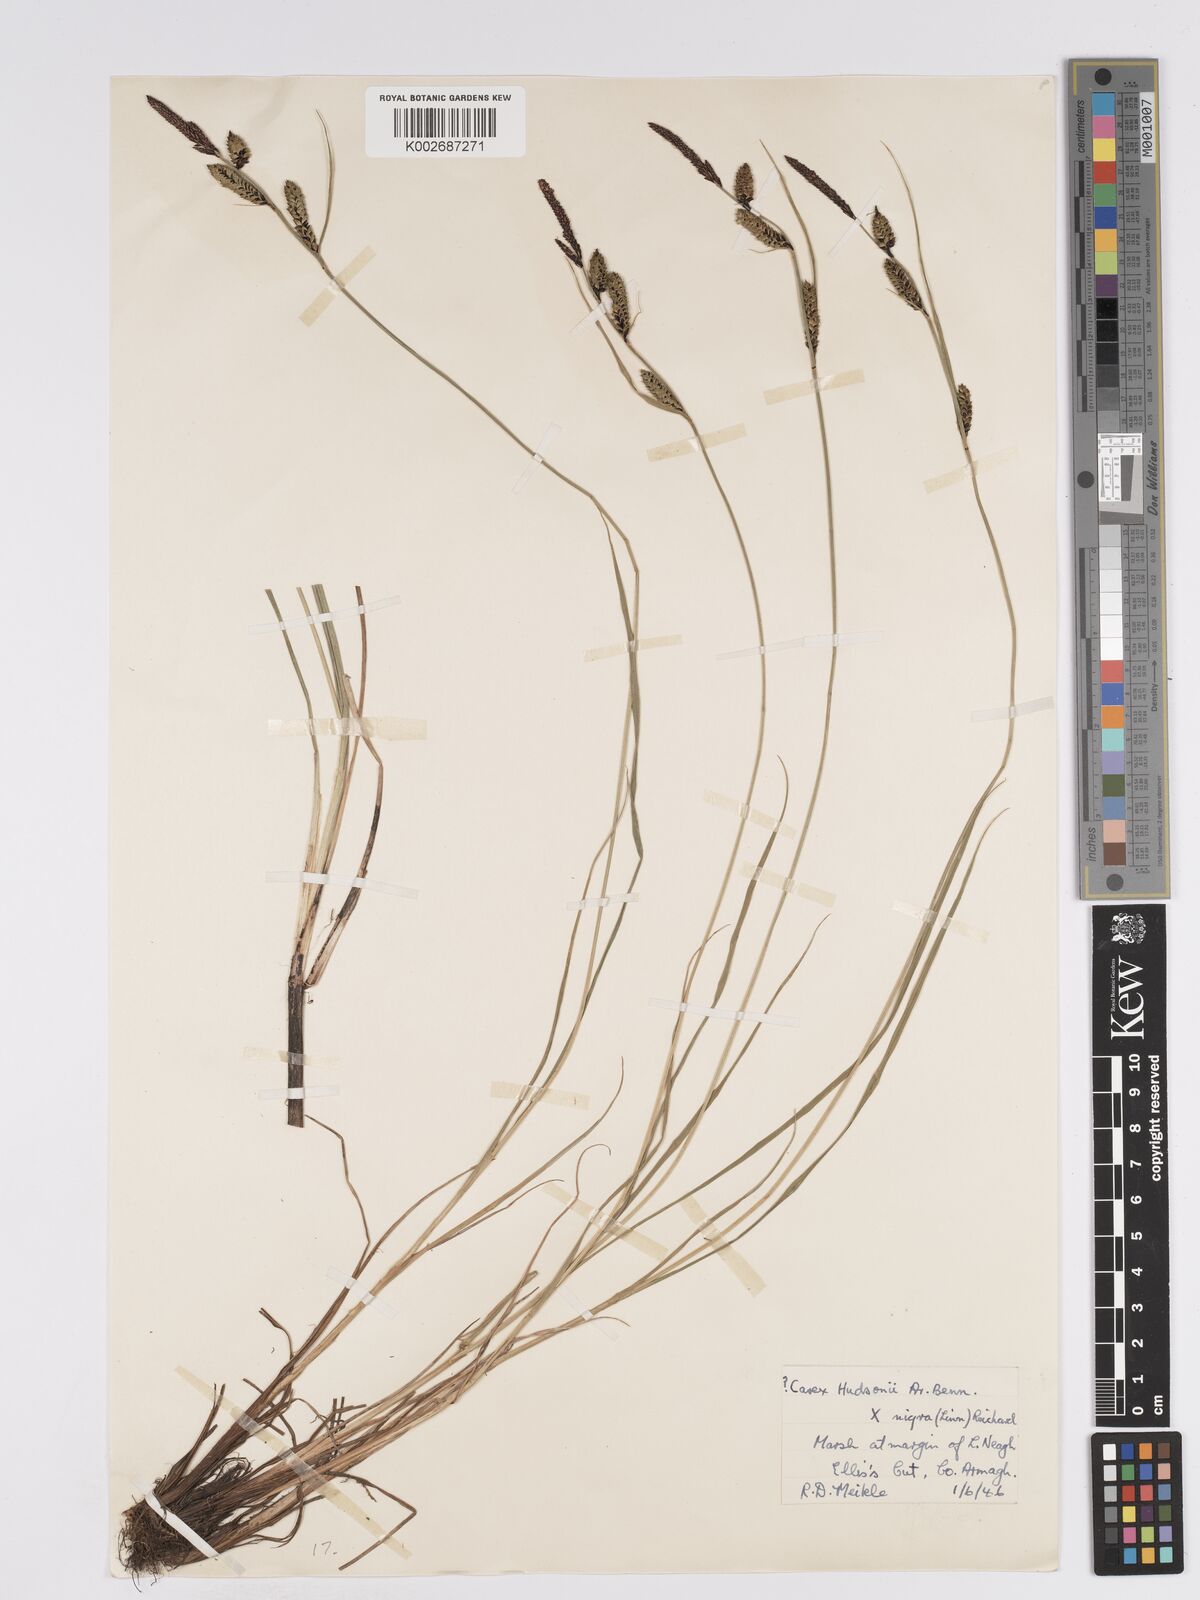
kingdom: Plantae
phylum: Tracheophyta
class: Liliopsida
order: Poales
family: Cyperaceae
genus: Carex
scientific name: Carex nigra
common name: Common sedge
